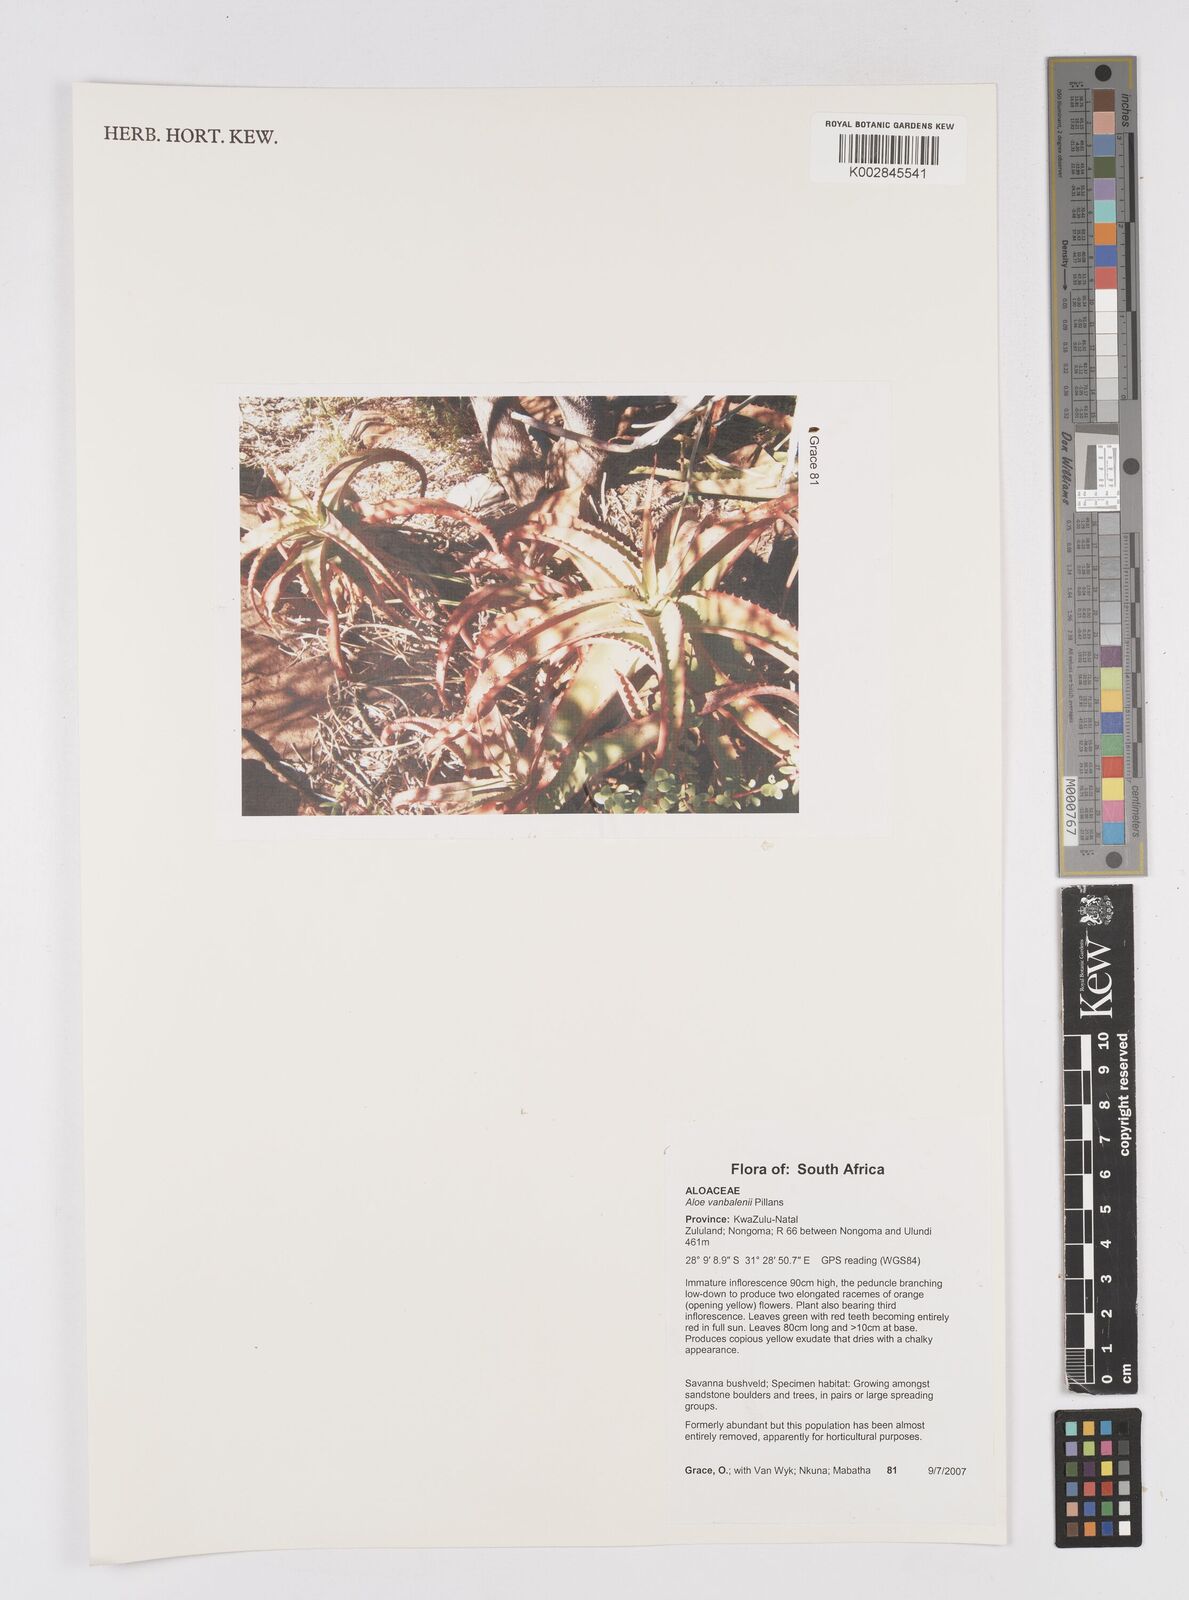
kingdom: Plantae
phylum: Tracheophyta
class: Liliopsida
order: Asparagales
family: Asphodelaceae
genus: Aloe
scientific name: Aloe vanbalenii
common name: Van balen's aloe
